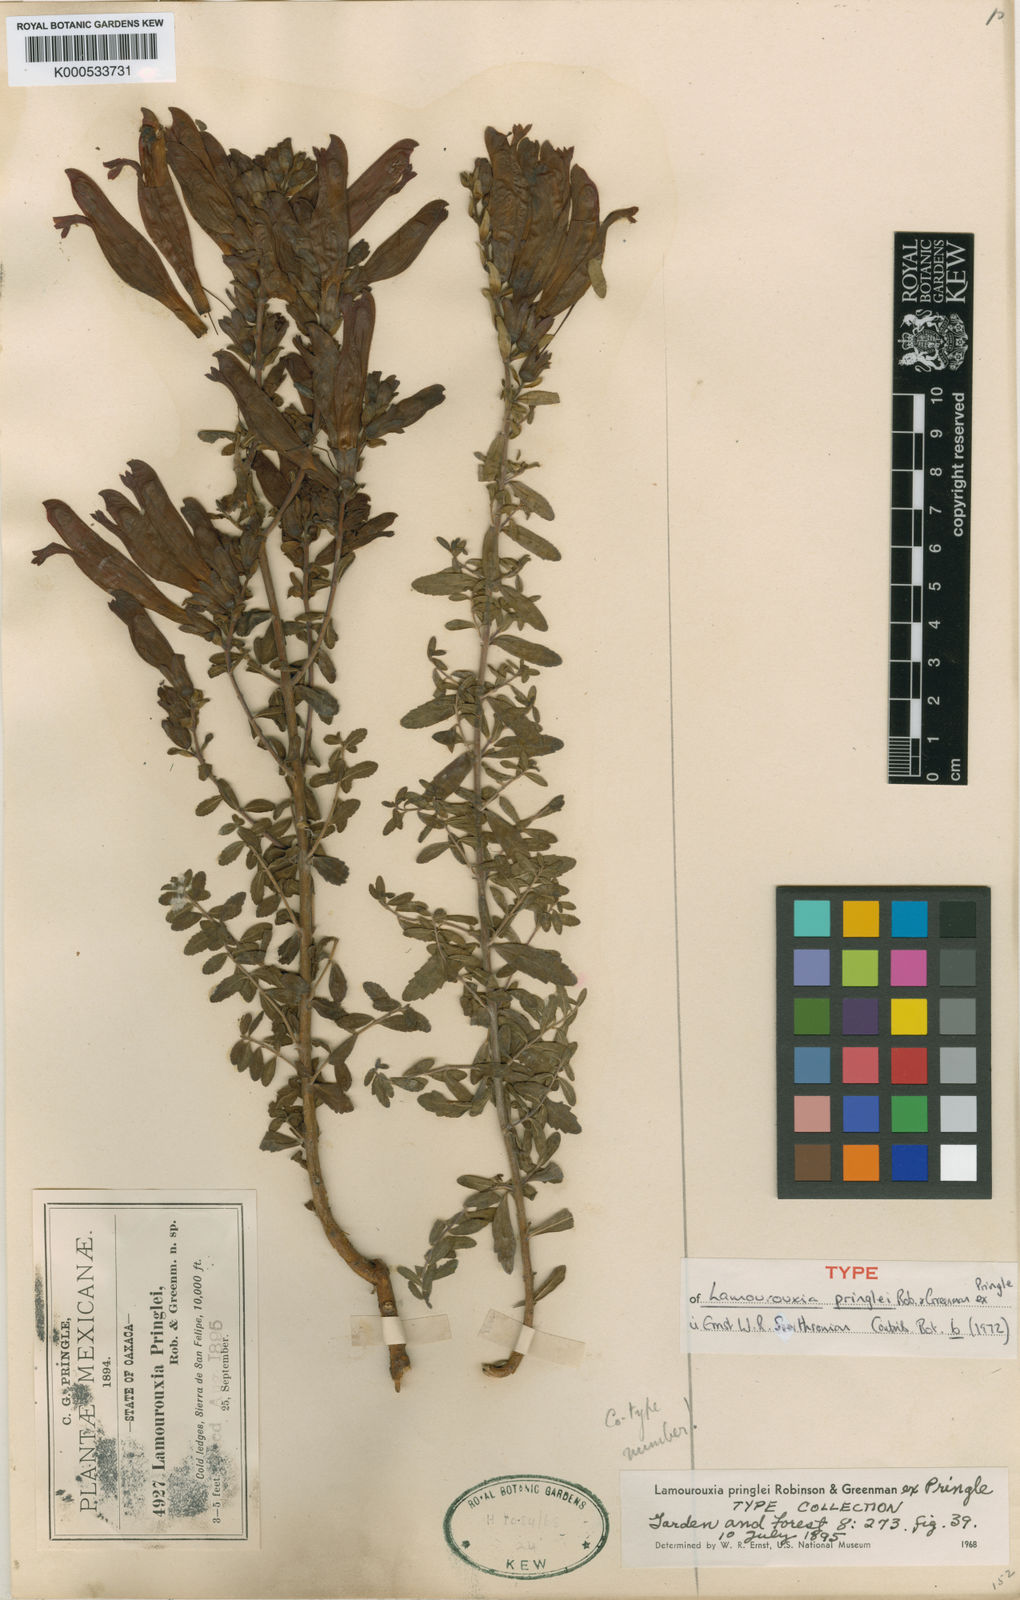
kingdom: Plantae
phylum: Tracheophyta
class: Magnoliopsida
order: Lamiales
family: Orobanchaceae
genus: Lamourouxia
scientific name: Lamourouxia
